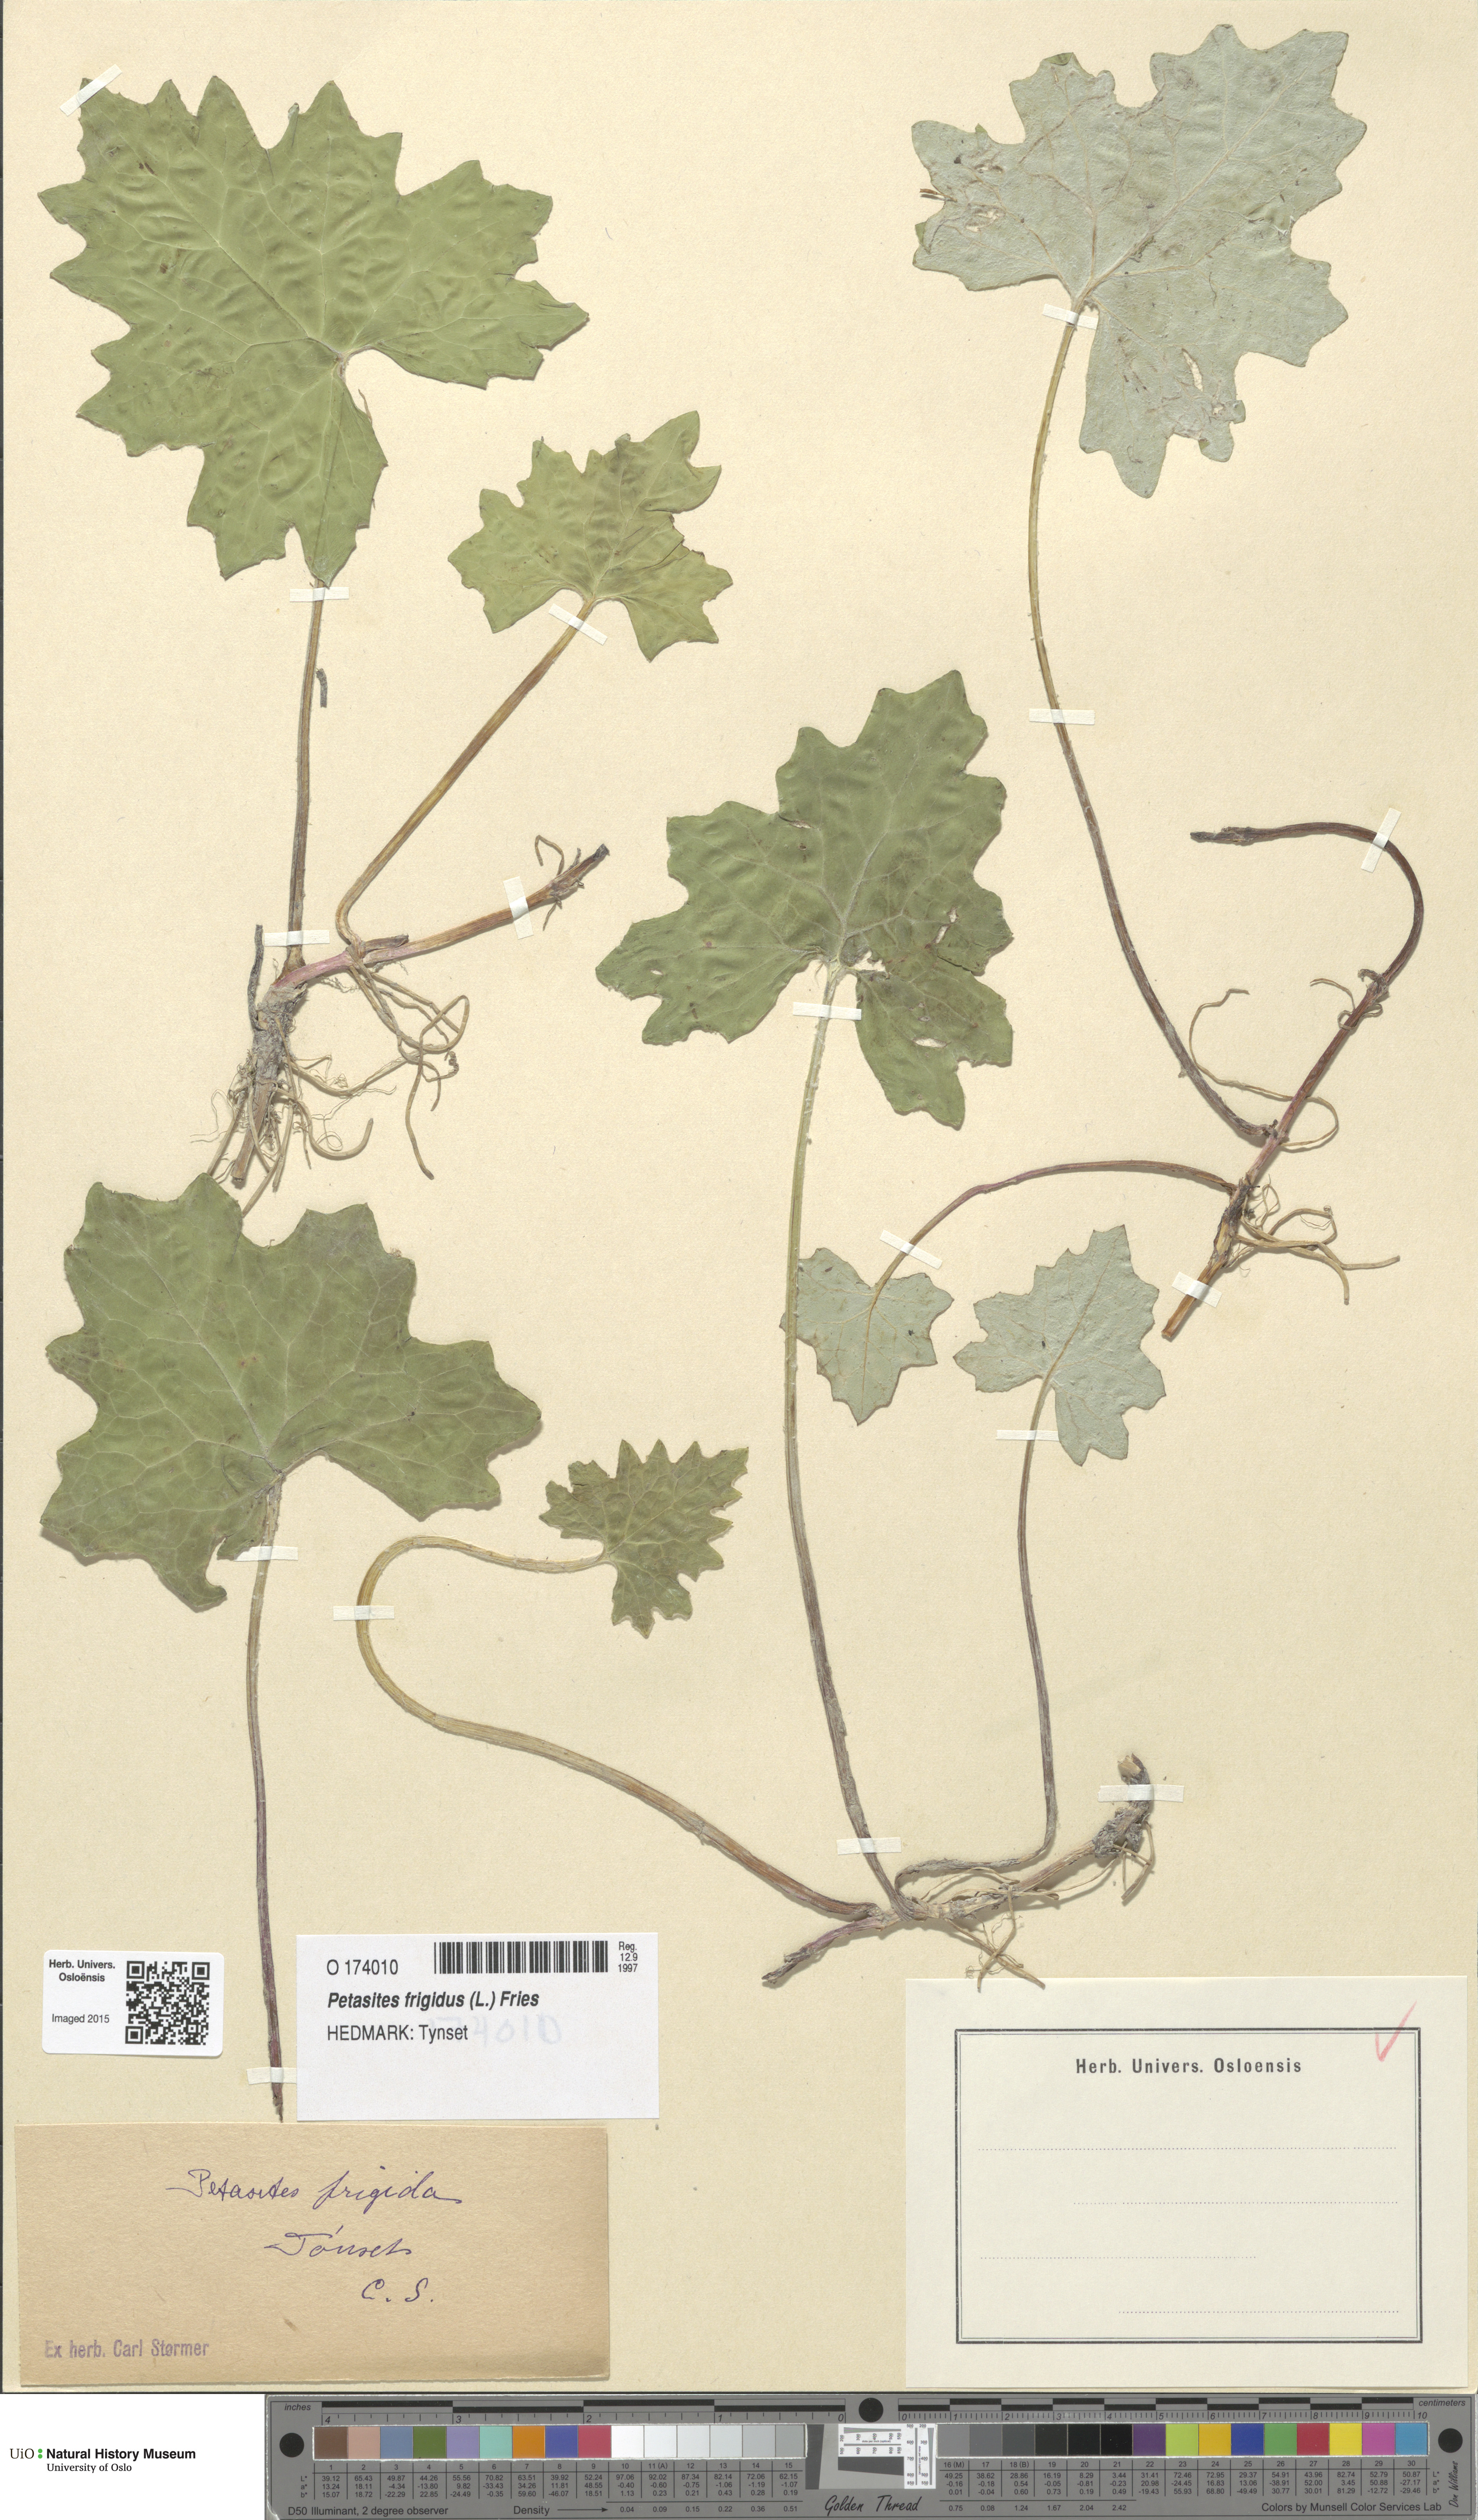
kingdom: Plantae
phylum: Tracheophyta
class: Magnoliopsida
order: Asterales
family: Asteraceae
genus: Petasites
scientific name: Petasites frigidus
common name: Arctic butterbur
